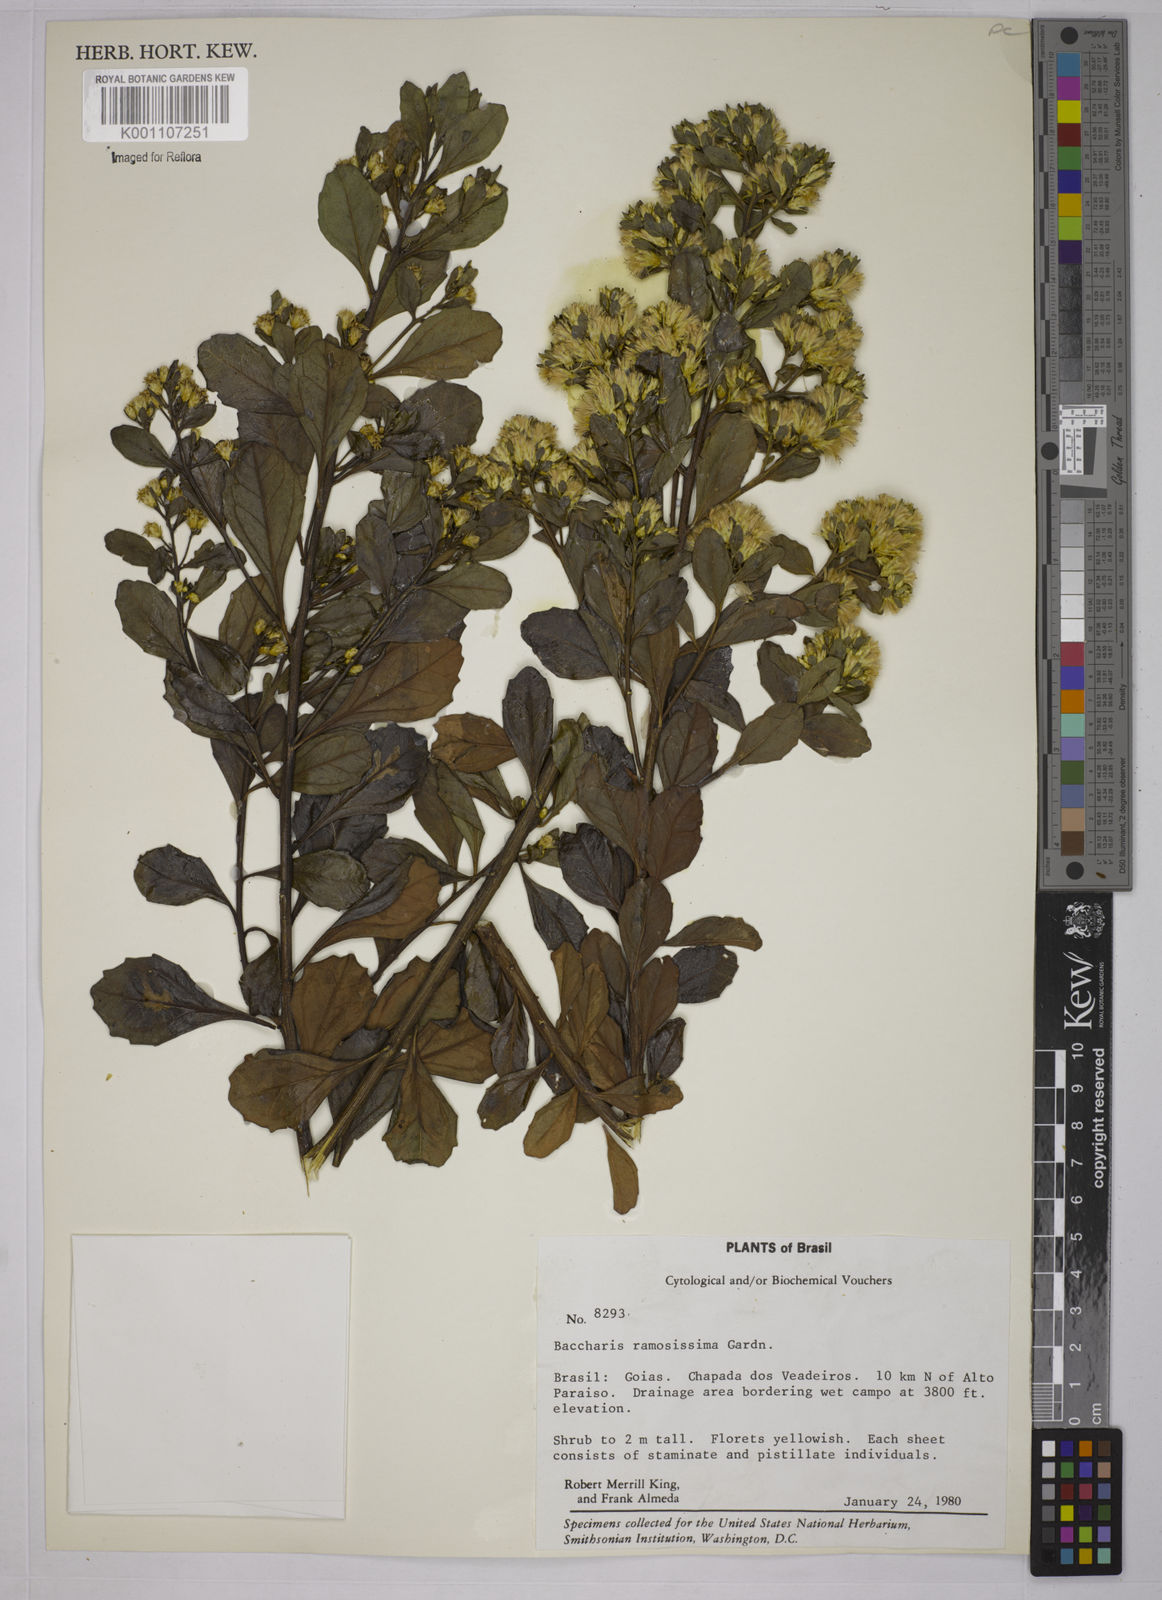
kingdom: Plantae
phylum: Tracheophyta
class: Magnoliopsida
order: Asterales
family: Asteraceae
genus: Baccharis
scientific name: Baccharis retusa
